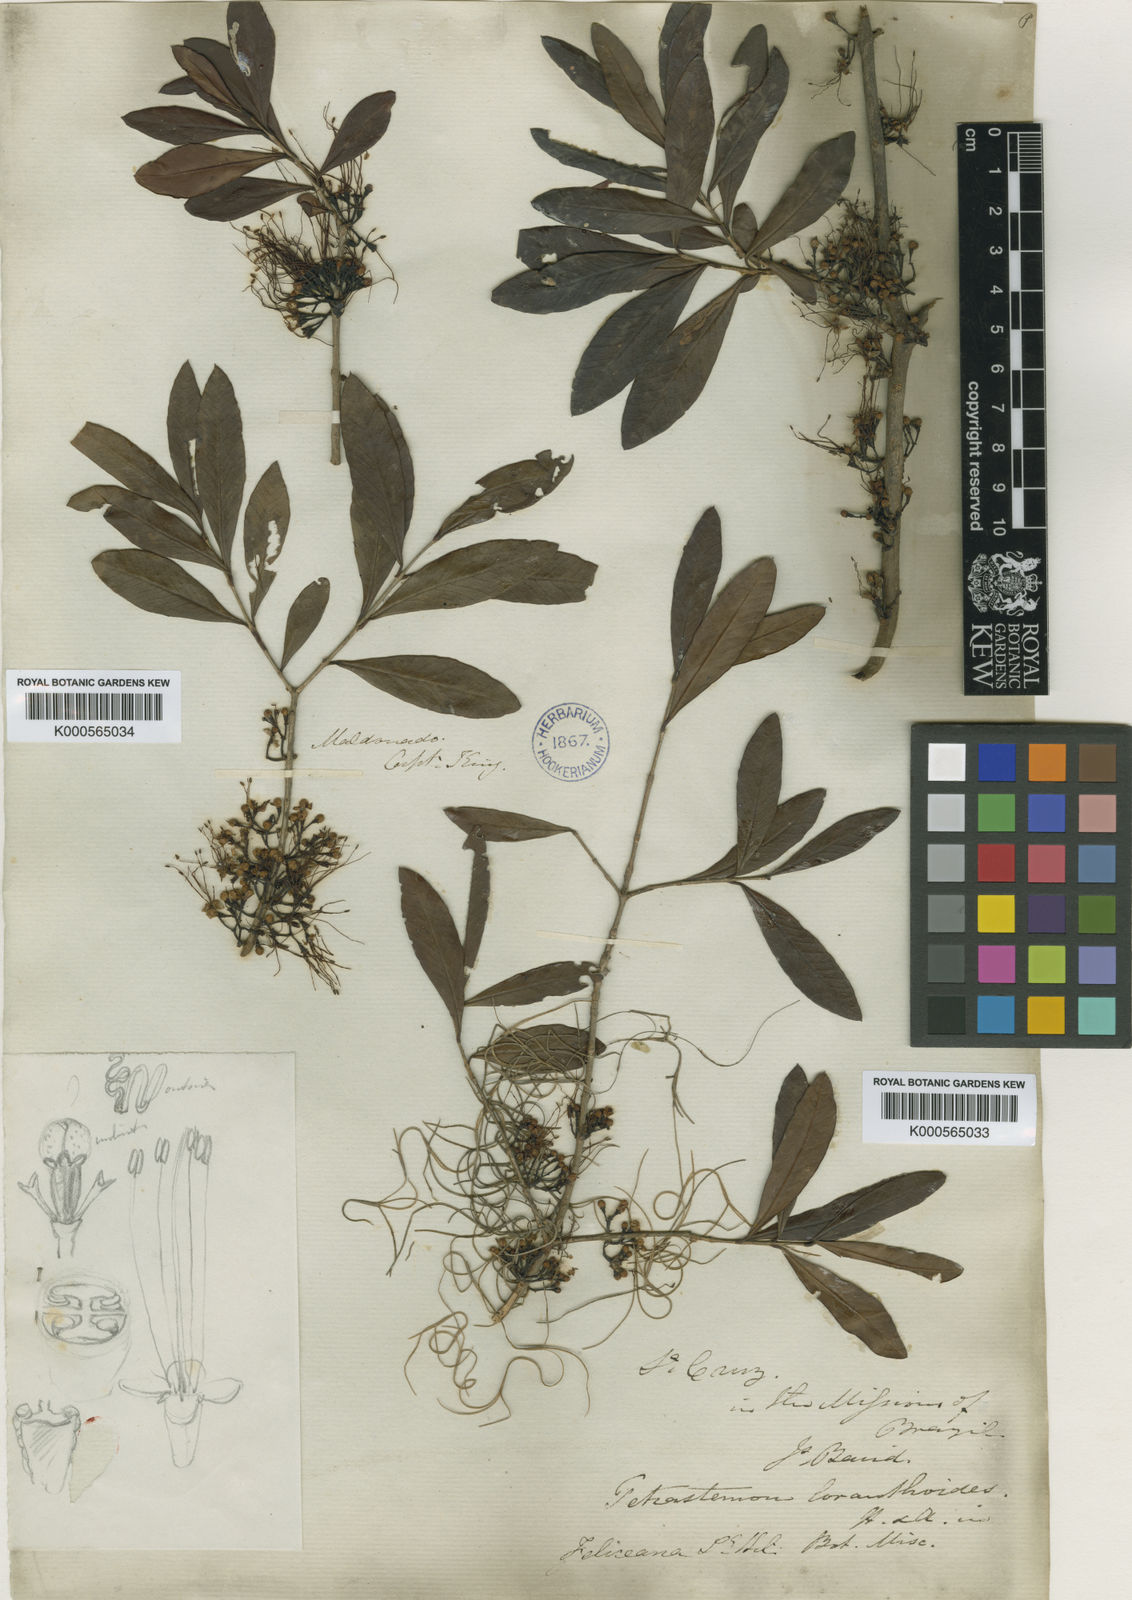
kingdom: Plantae
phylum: Tracheophyta
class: Magnoliopsida
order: Myrtales
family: Myrtaceae
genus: Myrrhinium
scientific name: Myrrhinium atropurpureum
